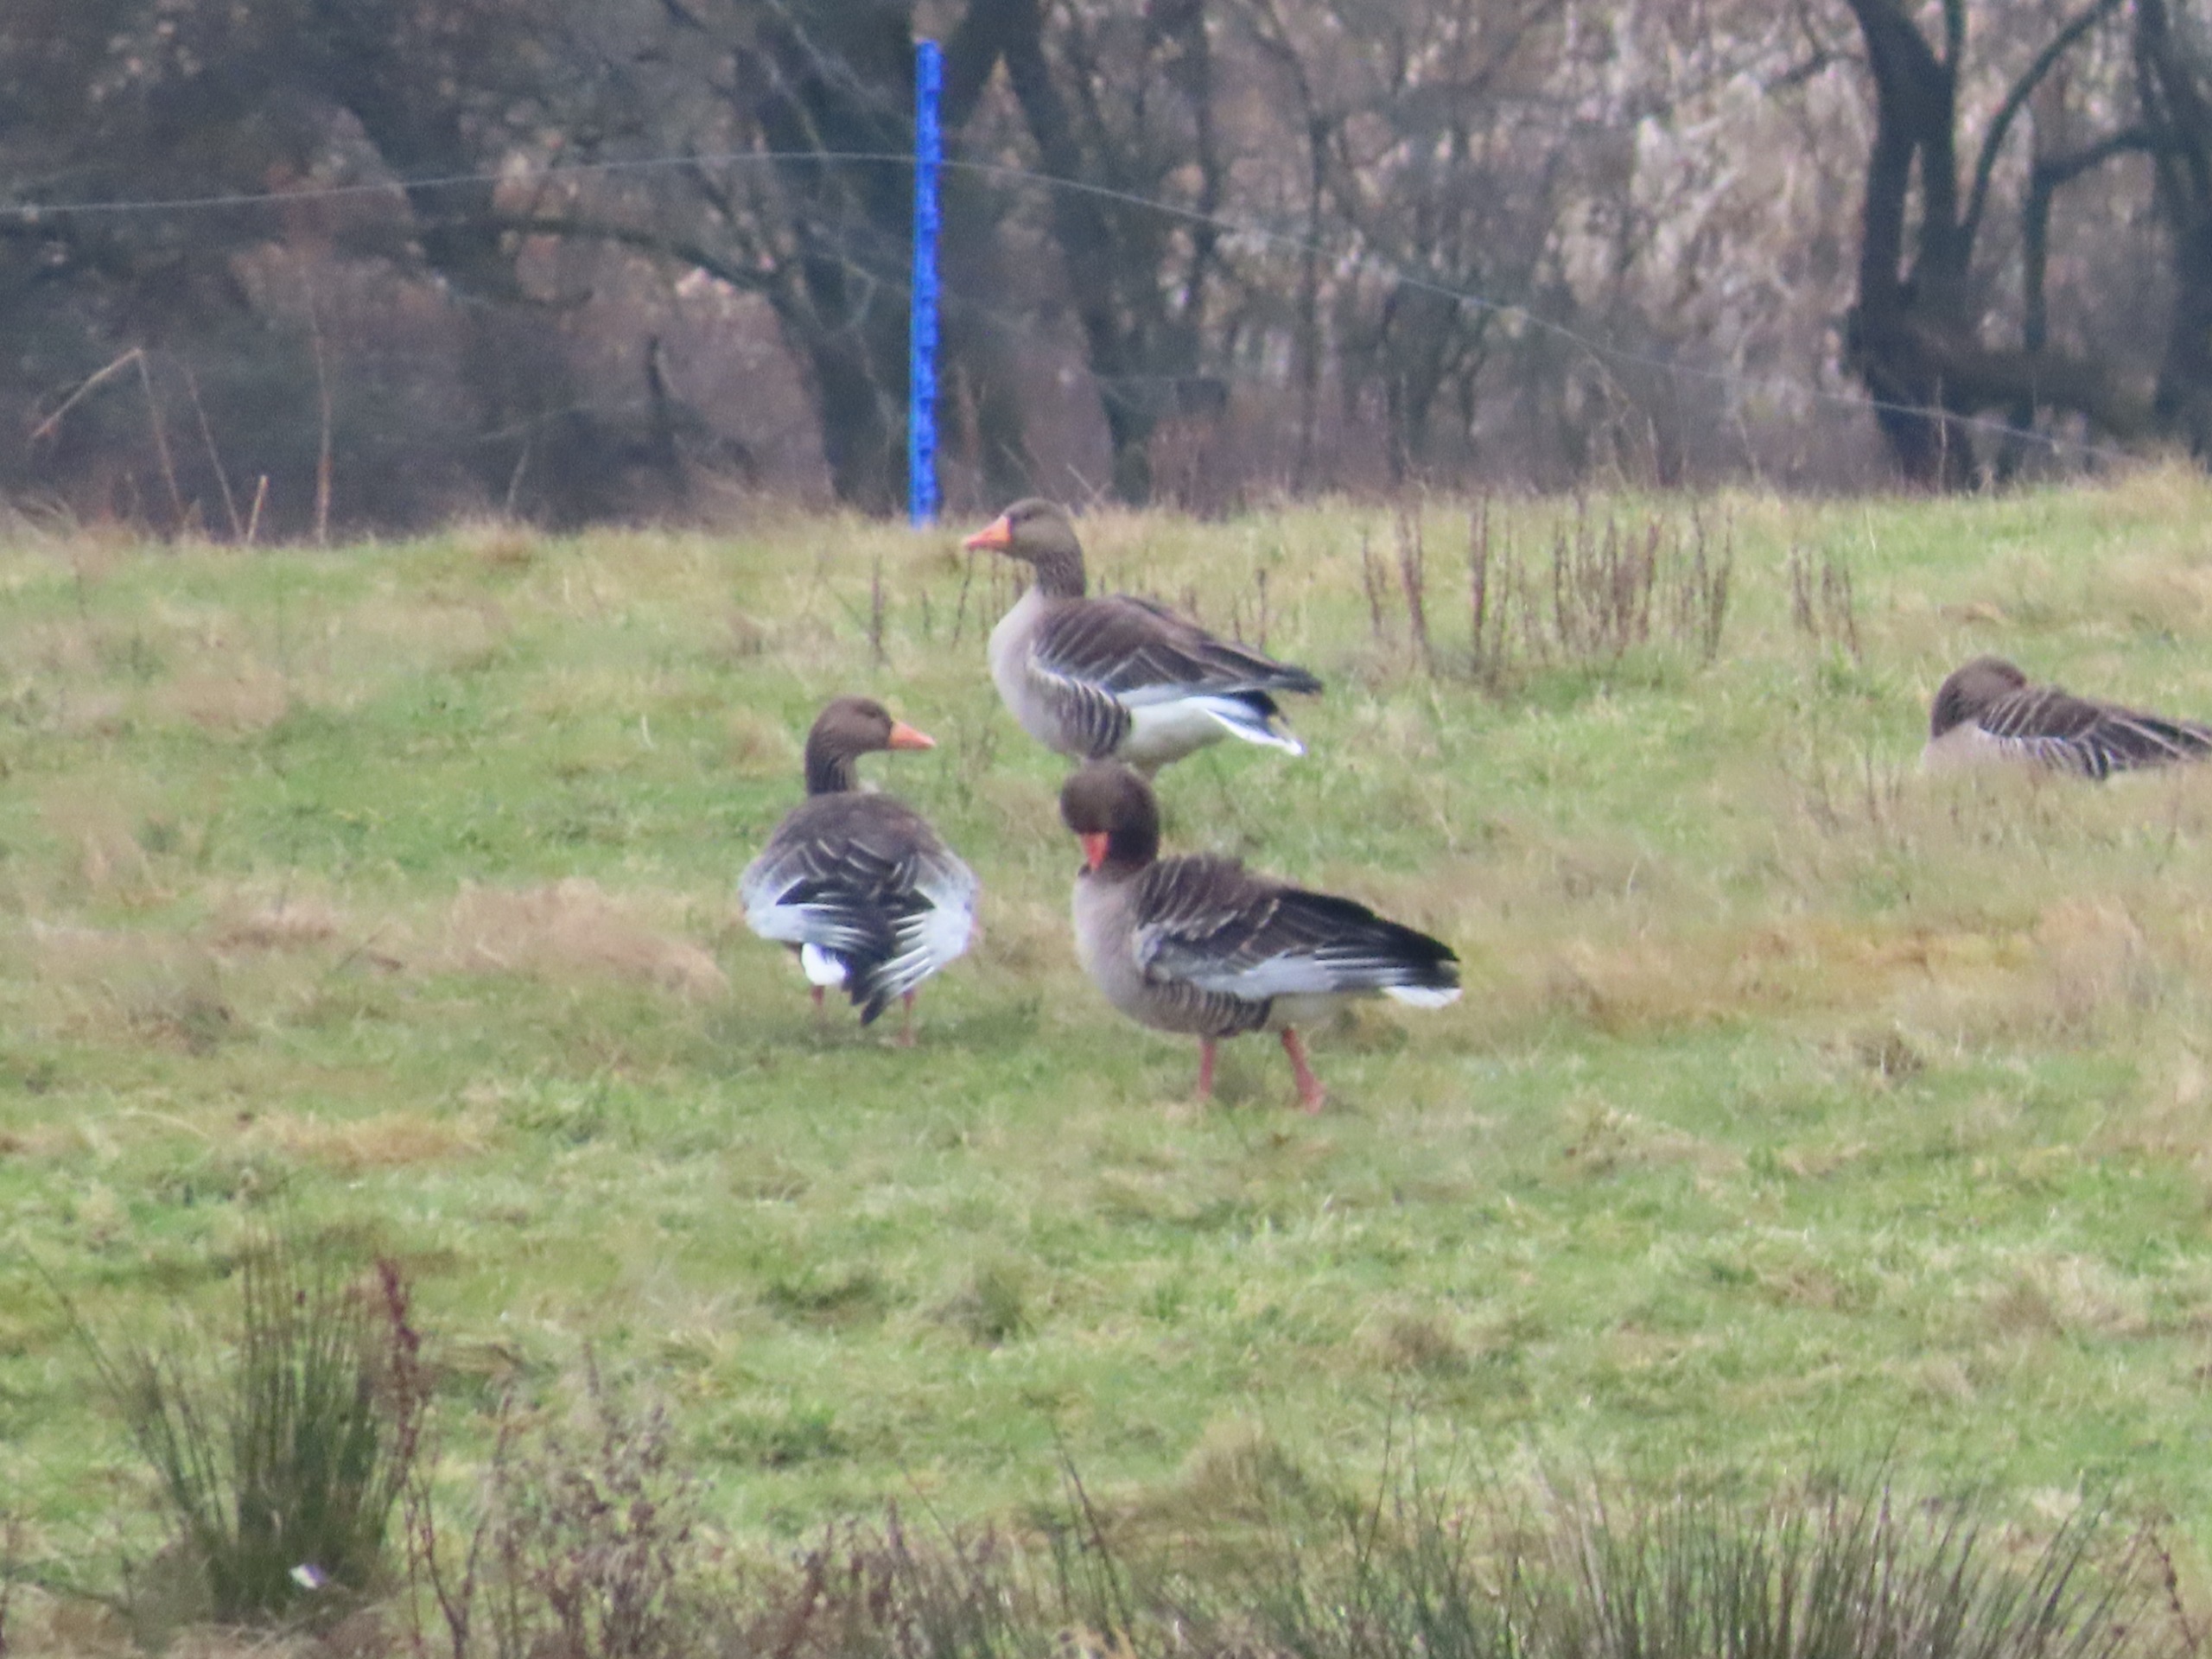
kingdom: Animalia
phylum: Chordata
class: Aves
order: Anseriformes
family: Anatidae
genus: Anser
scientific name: Anser anser
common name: Grågås
